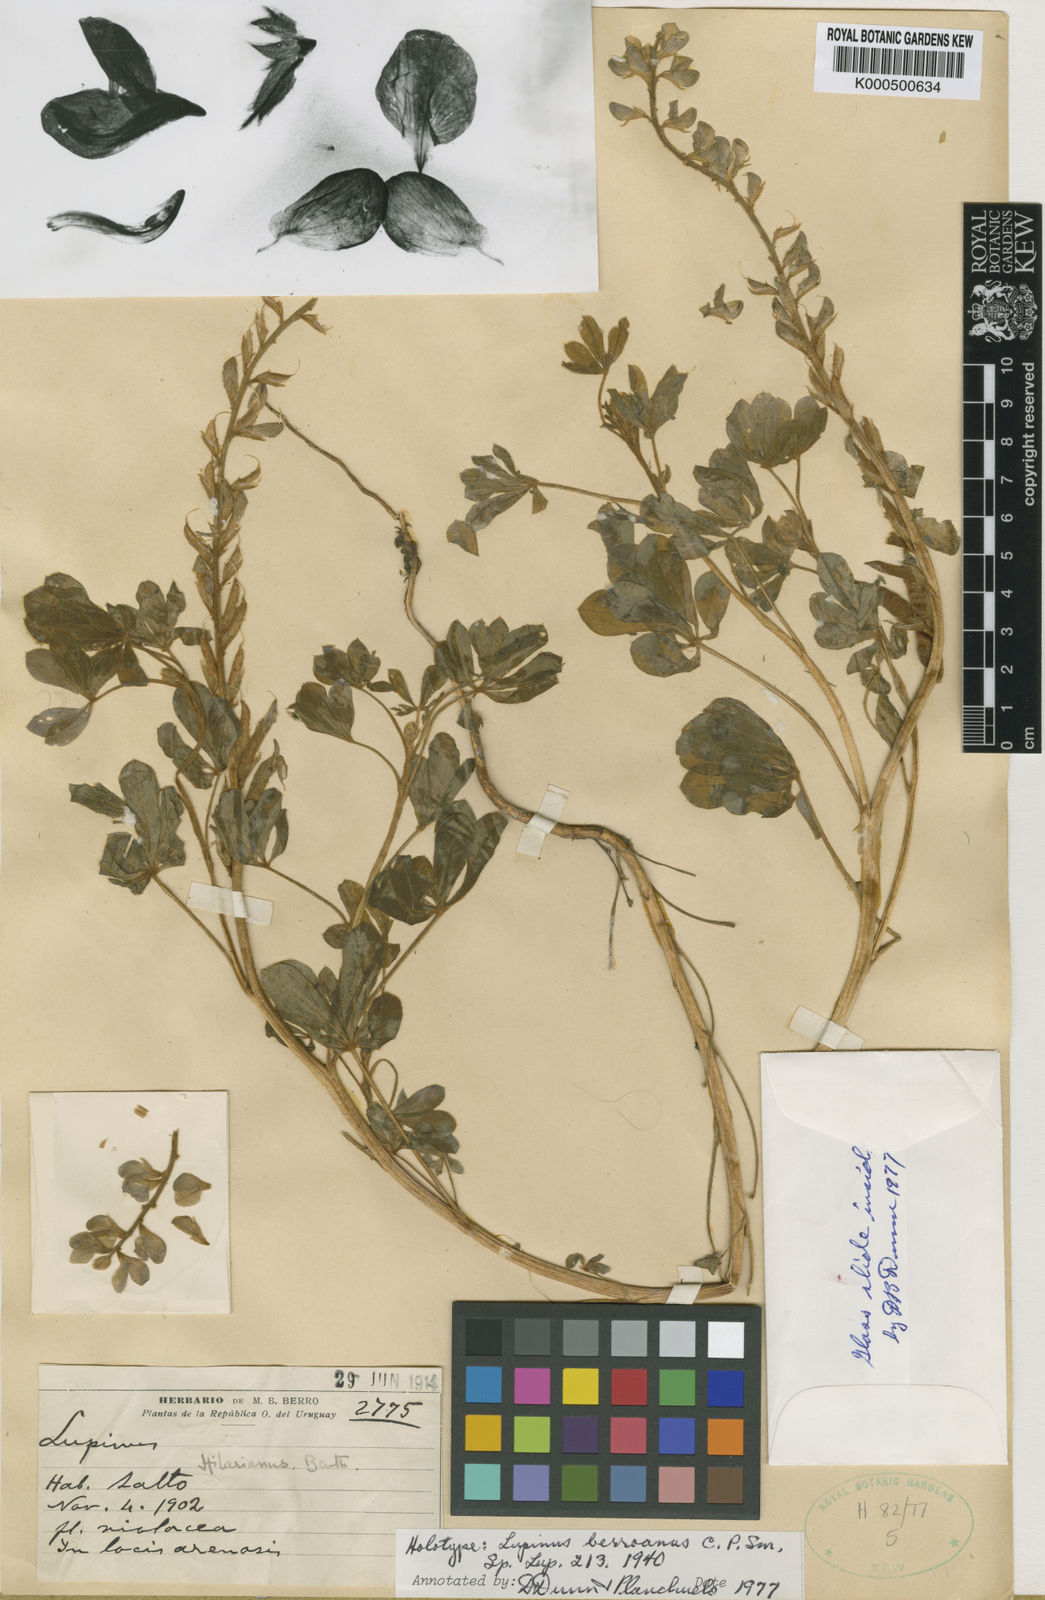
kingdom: Plantae
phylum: Tracheophyta
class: Magnoliopsida
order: Fabales
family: Fabaceae
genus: Lupinus
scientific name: Lupinus gibertianus
